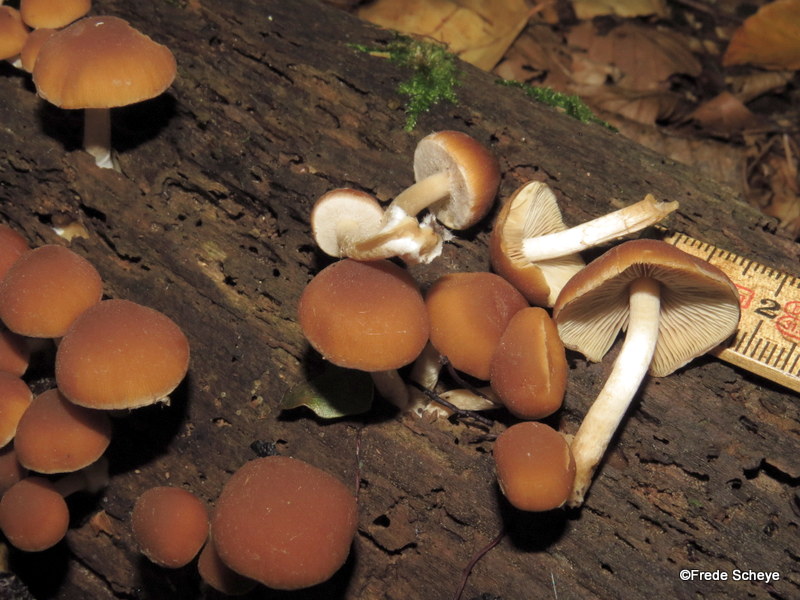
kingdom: Fungi
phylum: Basidiomycota
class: Agaricomycetes
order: Agaricales
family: Psathyrellaceae
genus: Psathyrella
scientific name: Psathyrella piluliformis
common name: lysstokket mørkhat
